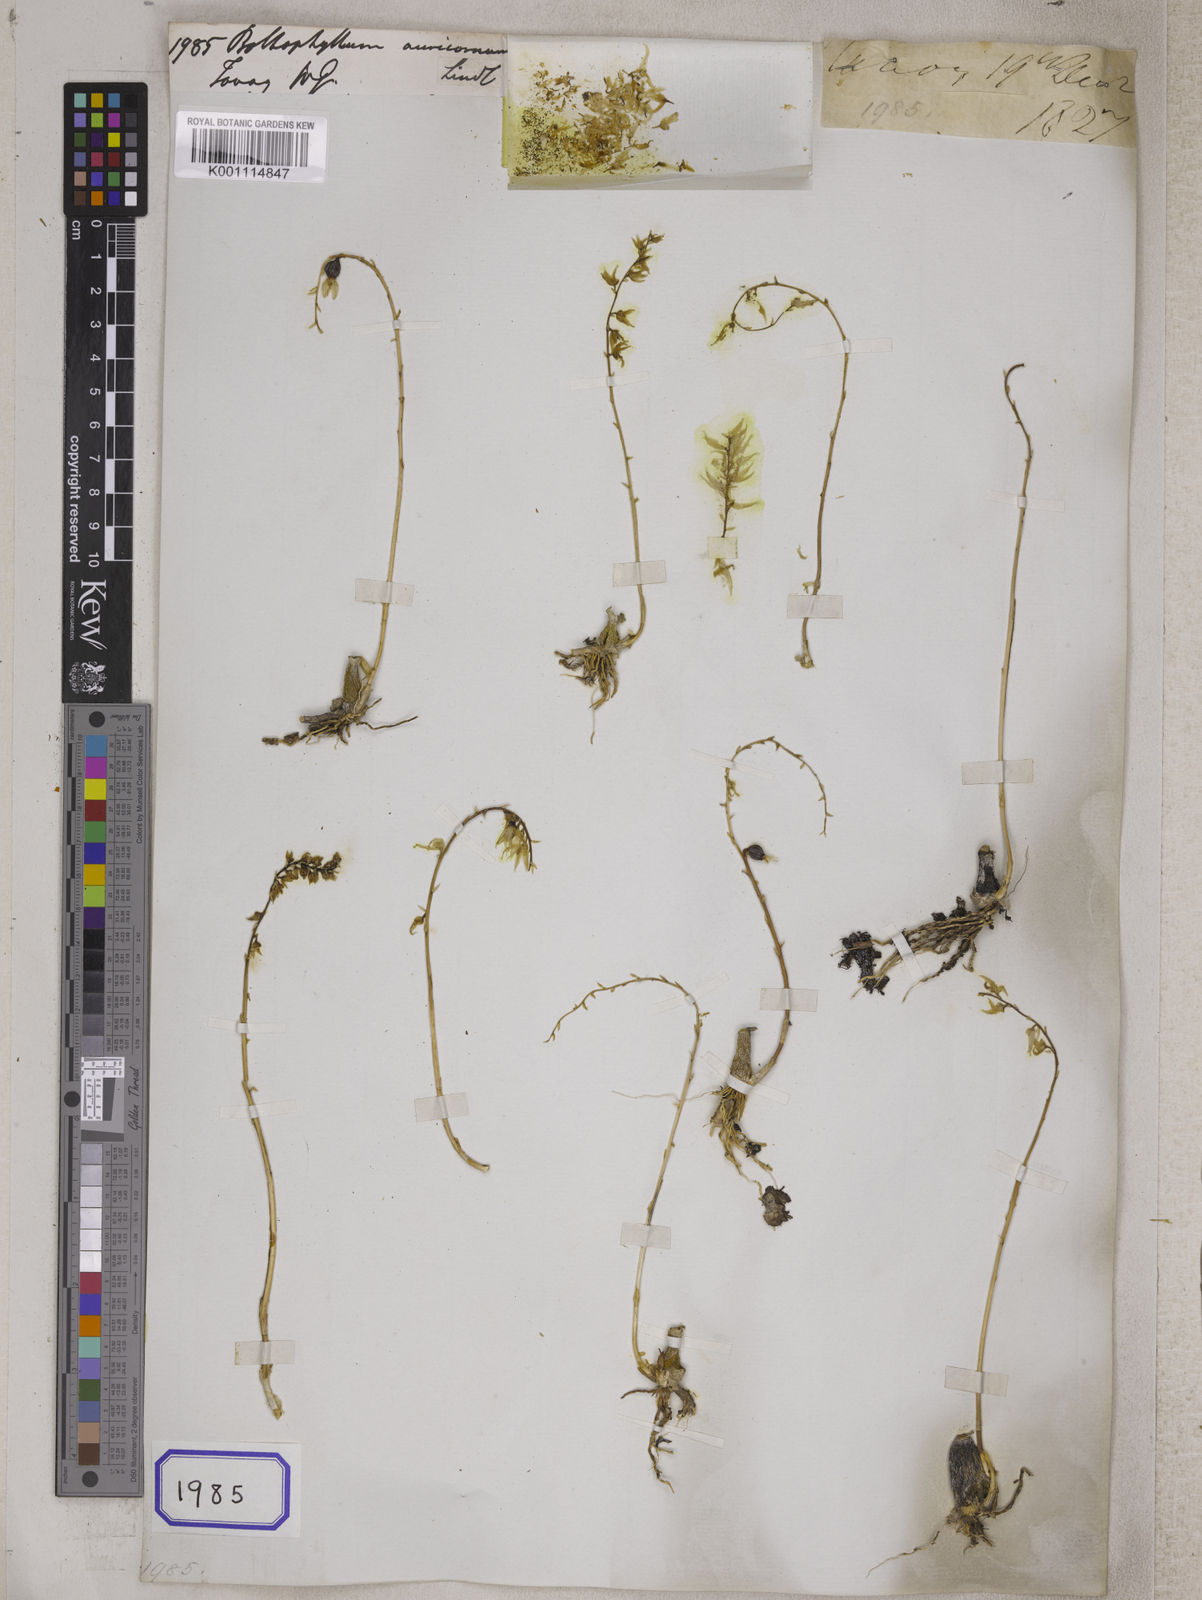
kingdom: Plantae
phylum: Tracheophyta
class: Liliopsida
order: Asparagales
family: Orchidaceae
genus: Bulbophyllum
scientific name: Bulbophyllum auricomum
